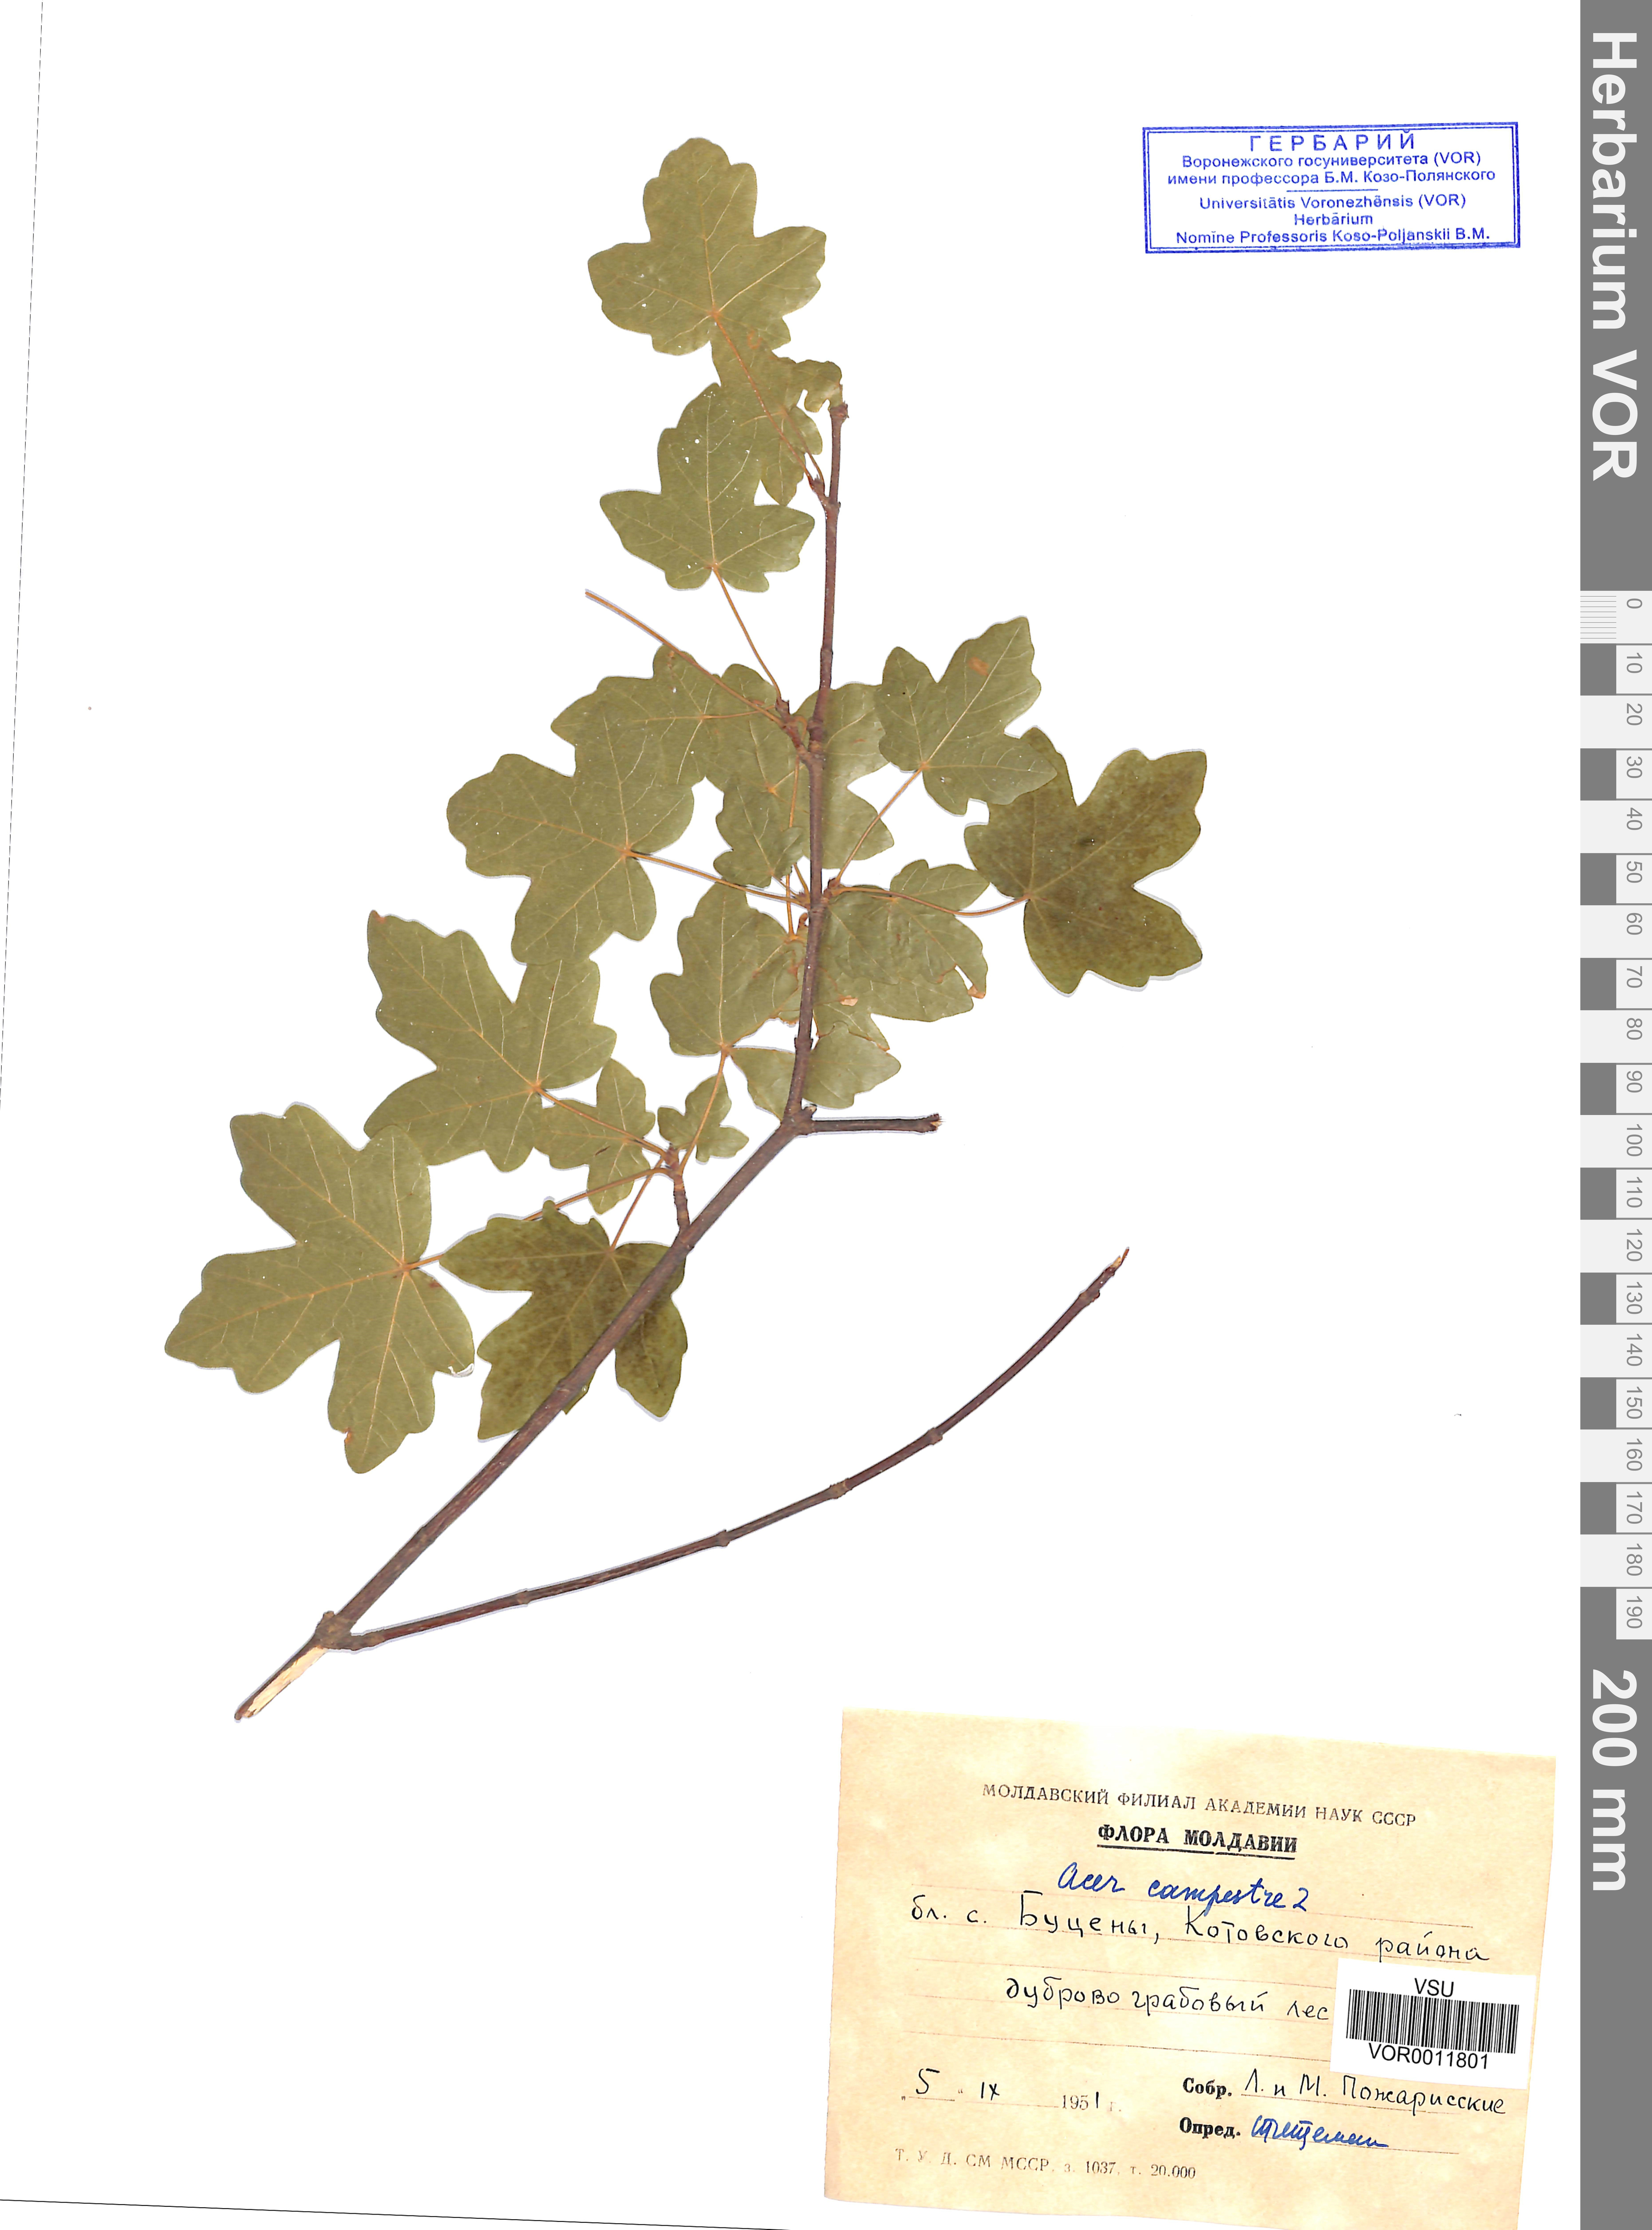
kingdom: Plantae
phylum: Tracheophyta
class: Magnoliopsida
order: Sapindales
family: Sapindaceae
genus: Acer
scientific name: Acer campestre
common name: Field maple
